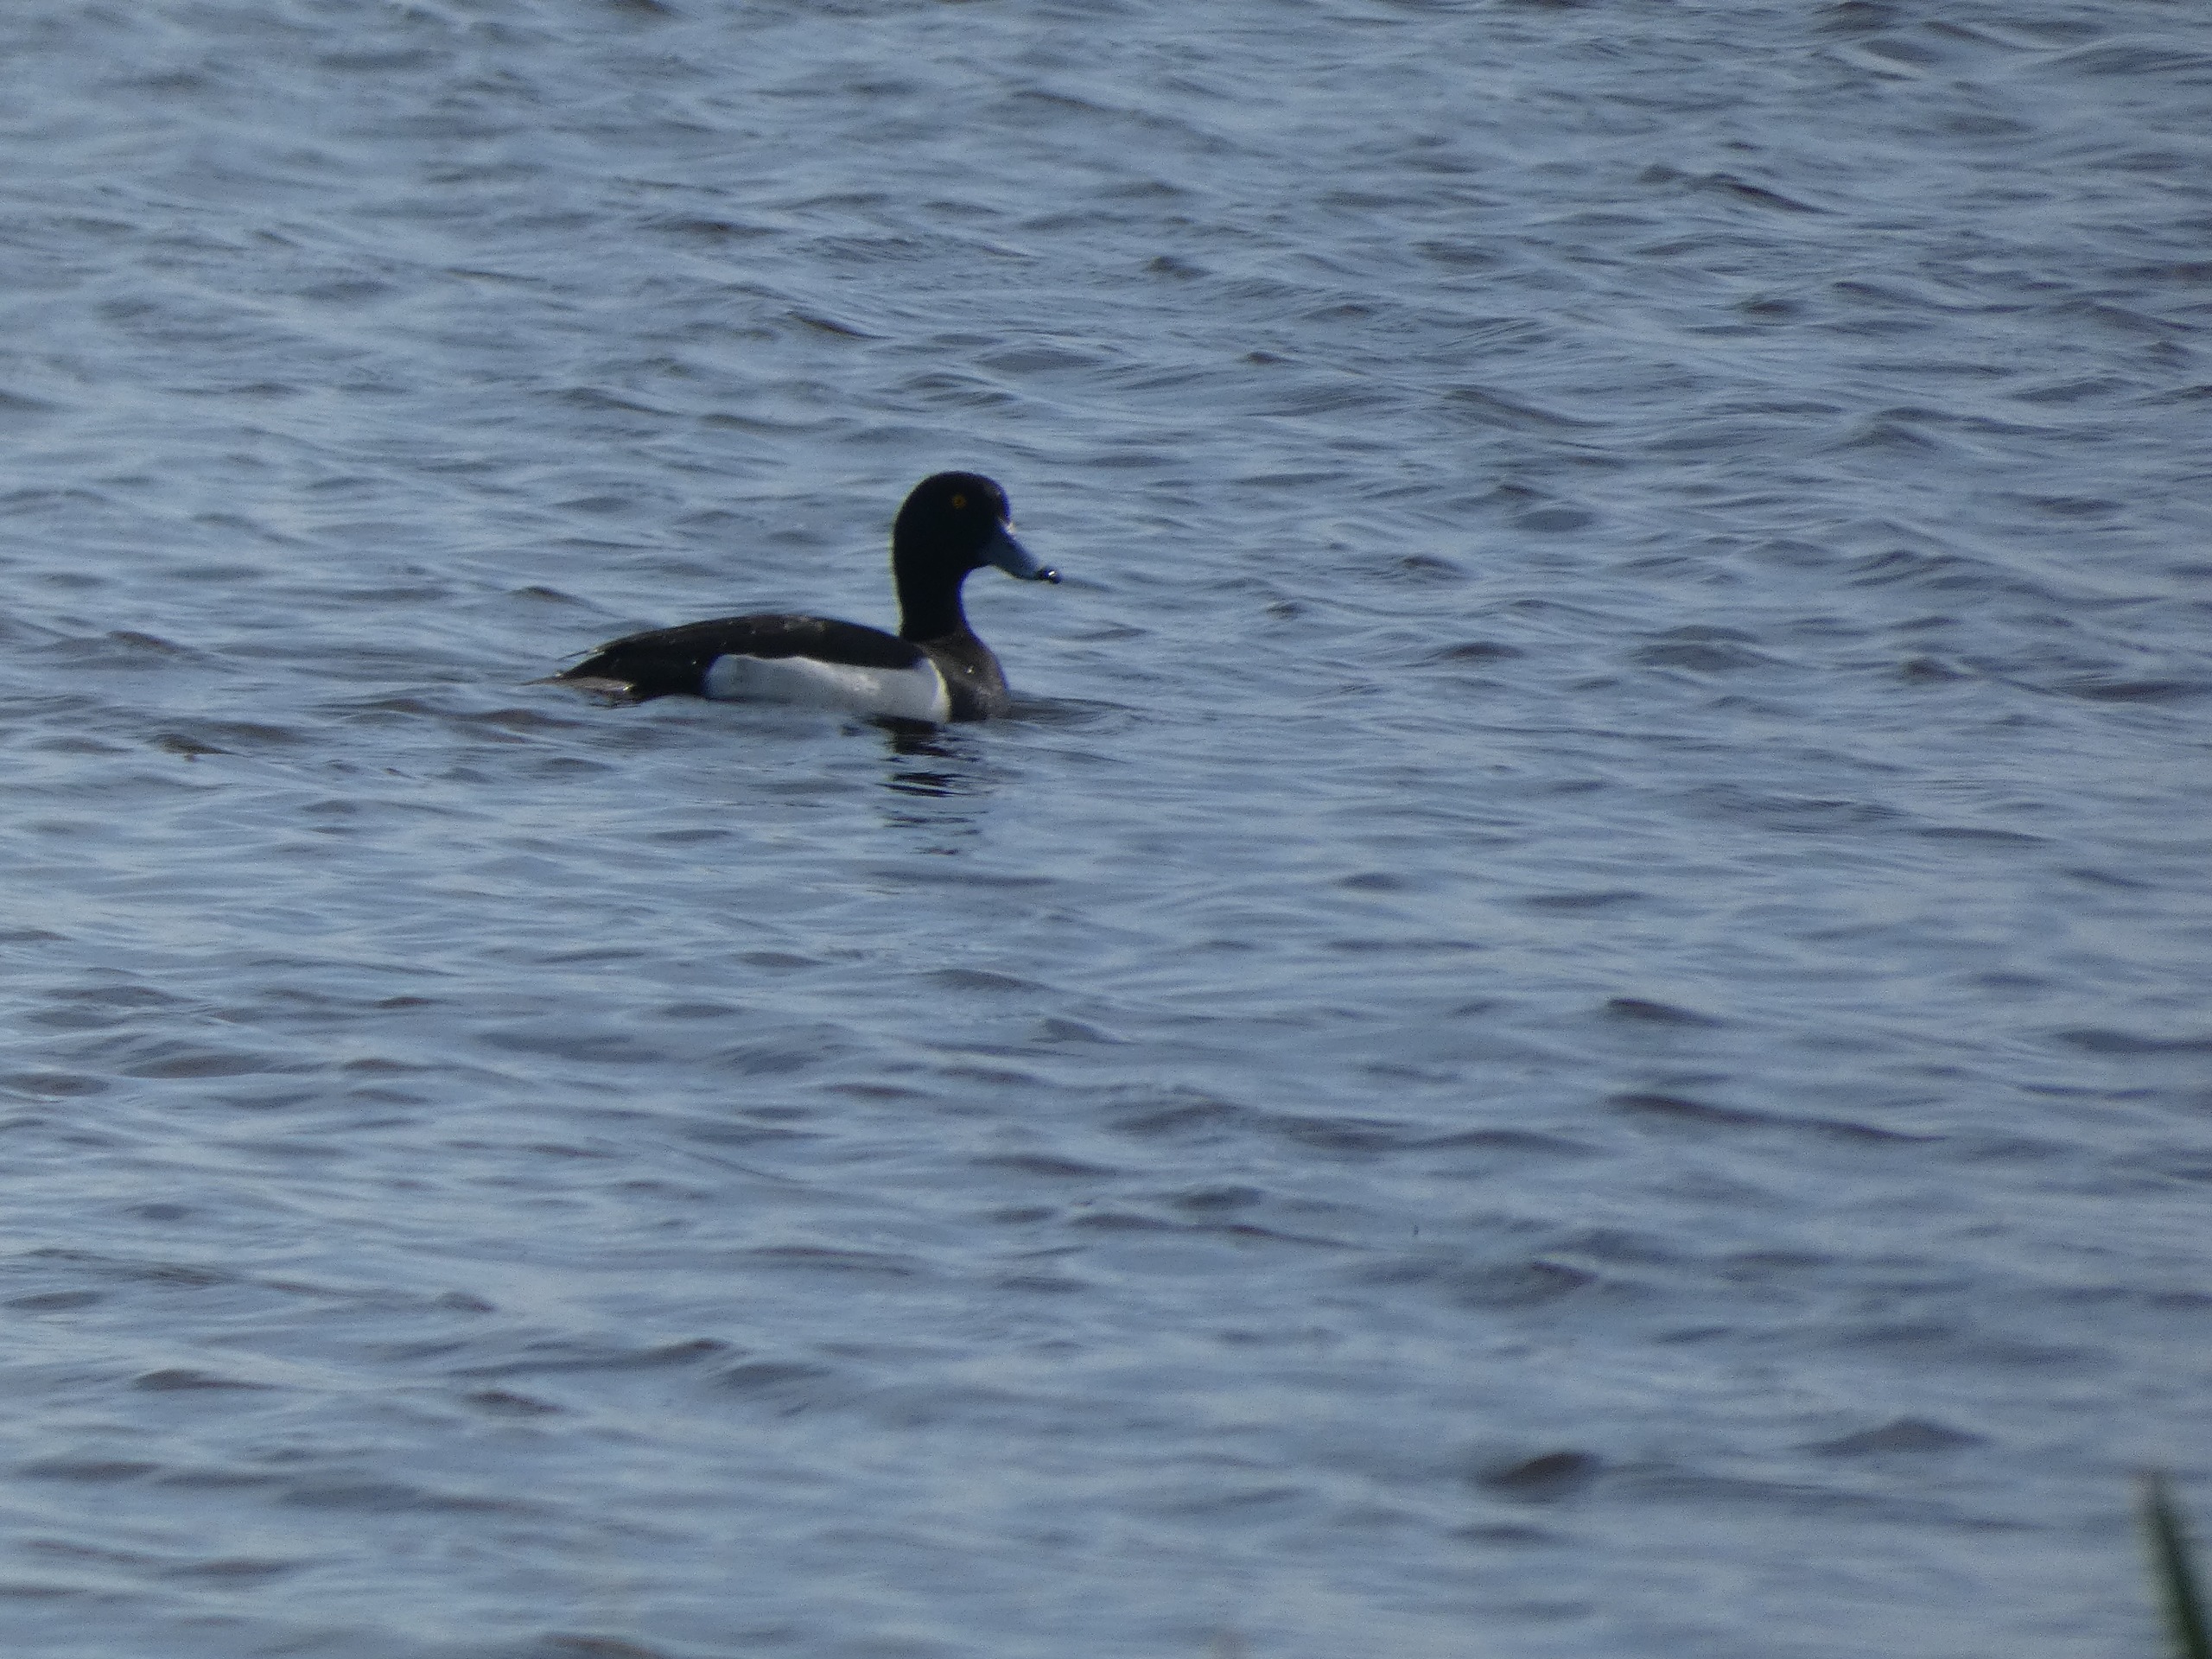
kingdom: Animalia
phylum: Chordata
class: Aves
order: Anseriformes
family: Anatidae
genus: Aythya
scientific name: Aythya fuligula
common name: Troldand
